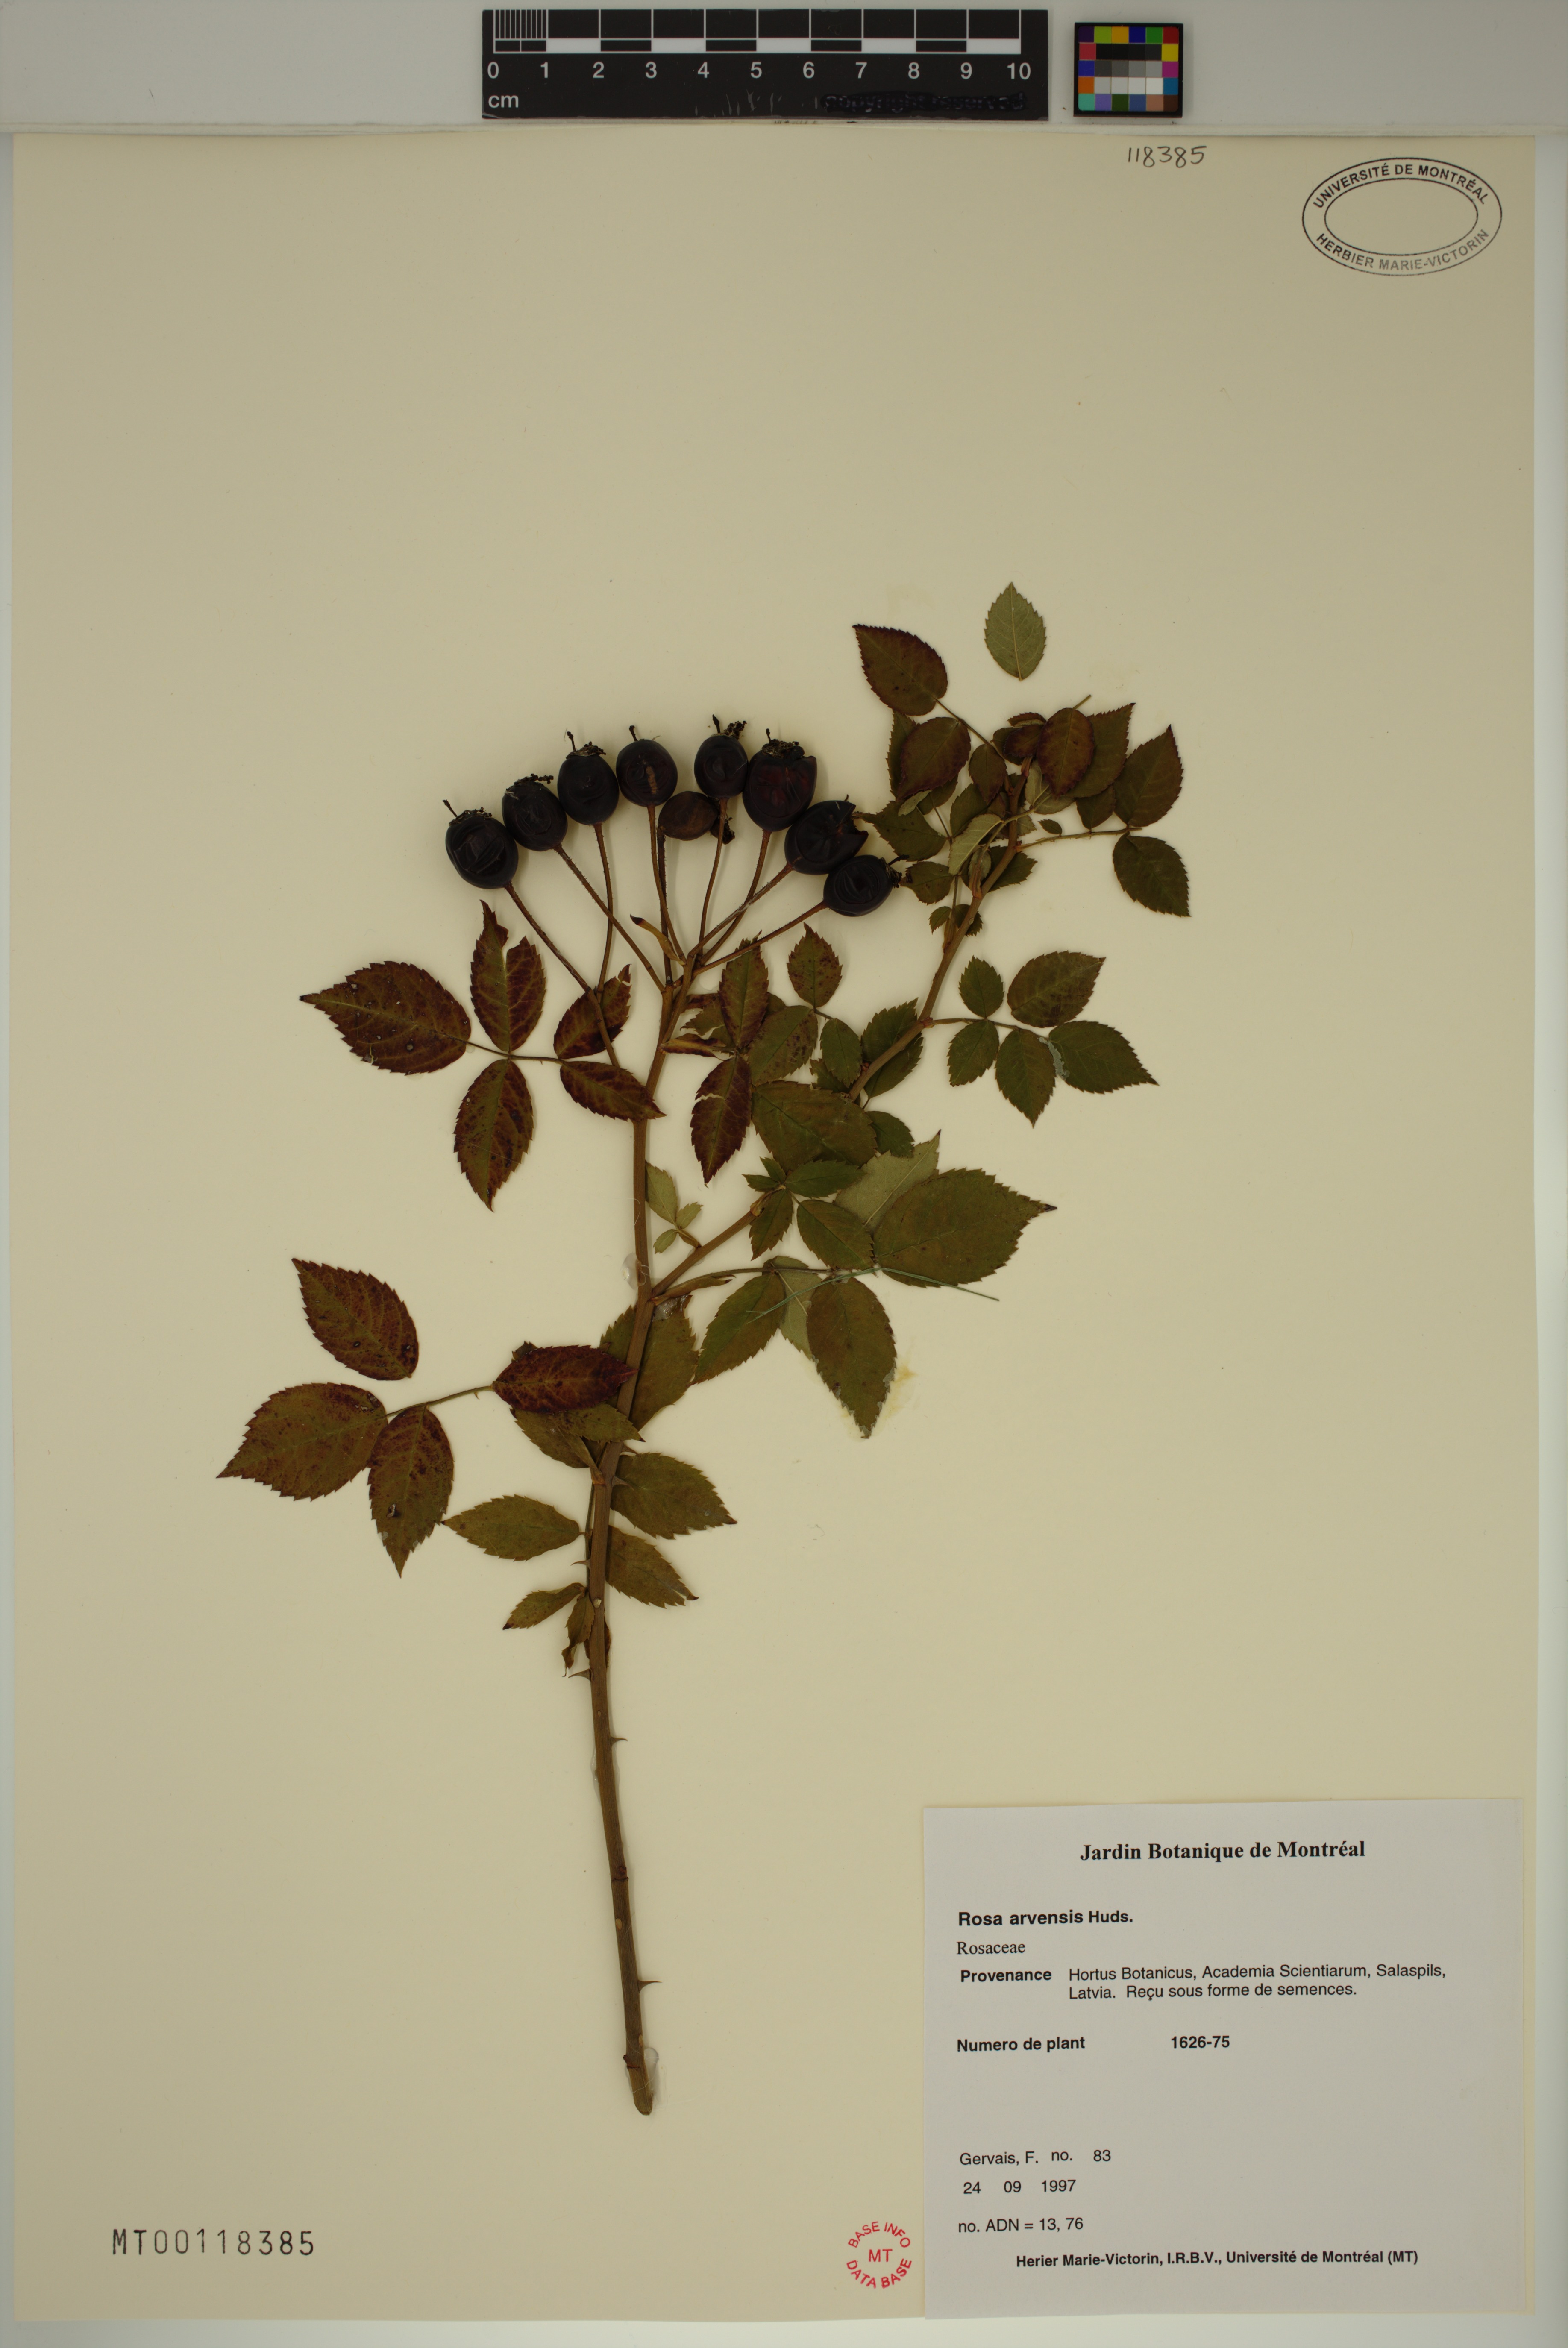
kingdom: Plantae
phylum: Tracheophyta
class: Magnoliopsida
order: Rosales
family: Rosaceae
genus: Rosa
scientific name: Rosa arvensis
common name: Field rose
